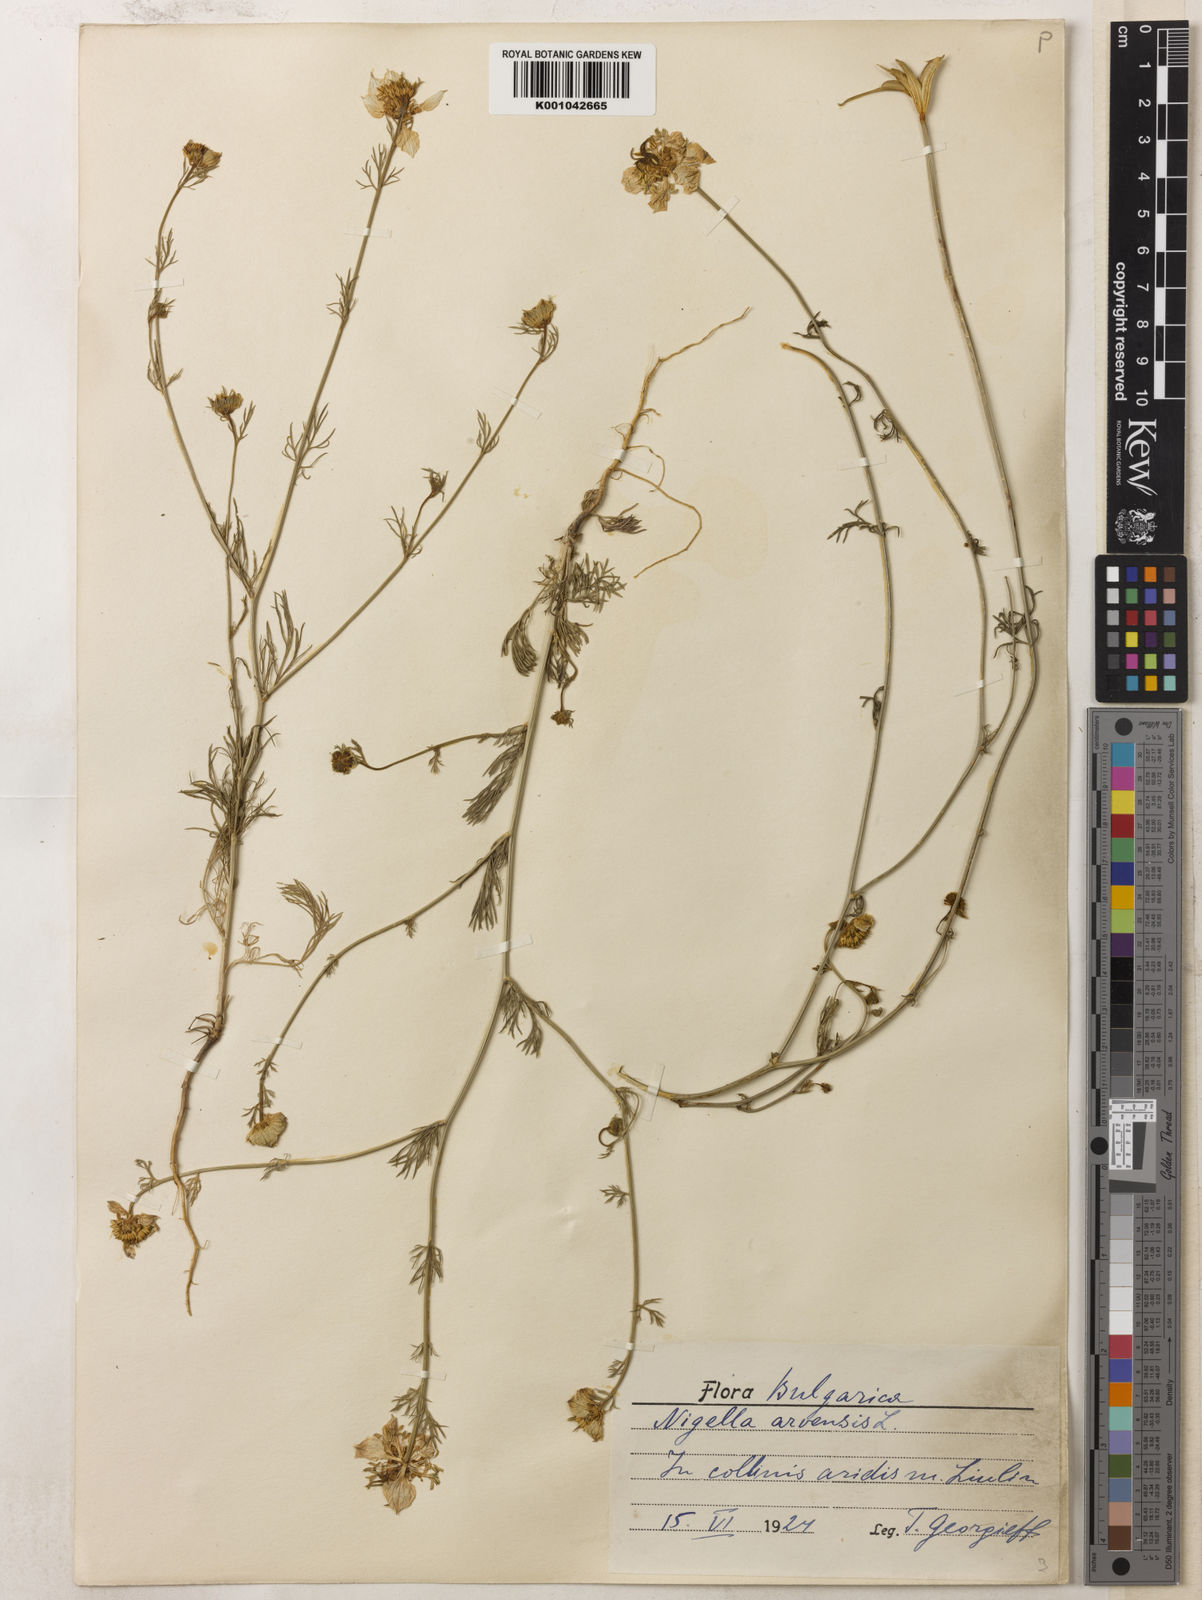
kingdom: Plantae
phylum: Tracheophyta
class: Magnoliopsida
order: Ranunculales
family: Ranunculaceae
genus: Nigella
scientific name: Nigella arvensis
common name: Wild fennel-flower
